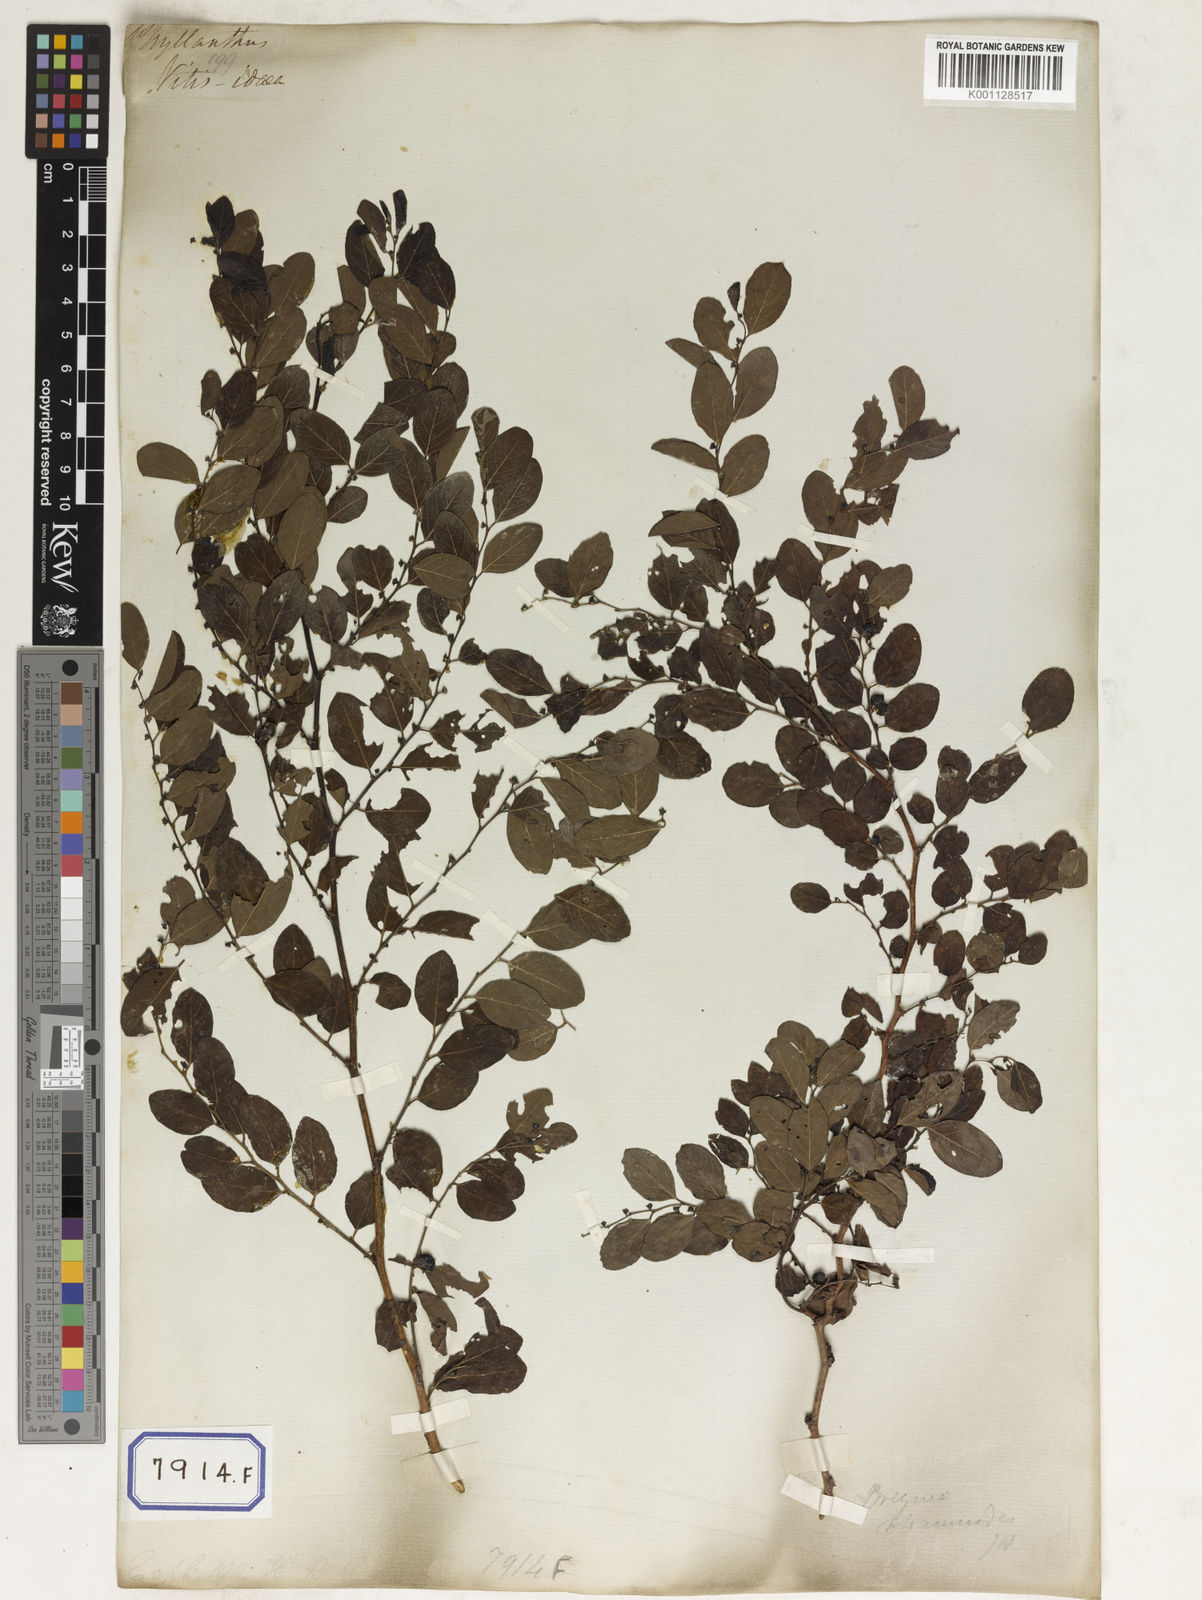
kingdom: Plantae
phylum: Tracheophyta
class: Magnoliopsida
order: Malpighiales
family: Euphorbiaceae
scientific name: Euphorbiaceae
